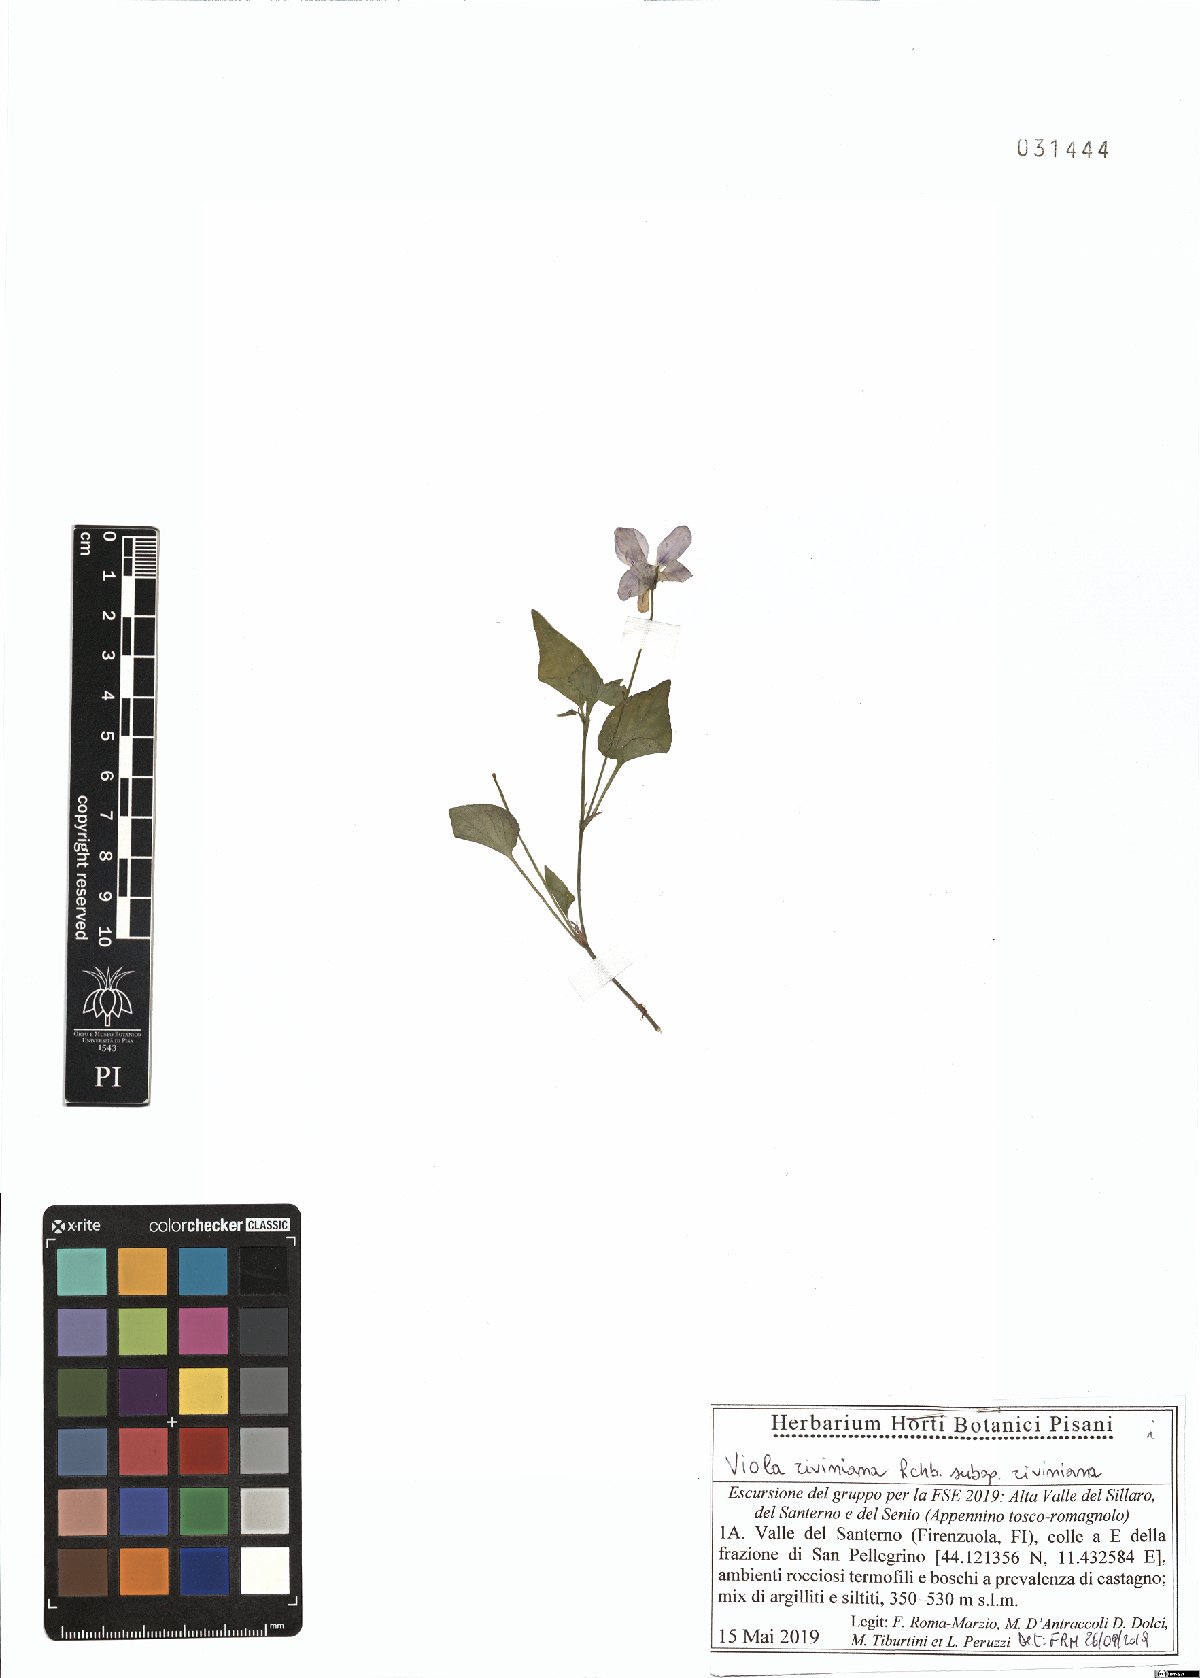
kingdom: Plantae
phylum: Tracheophyta
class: Magnoliopsida
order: Malpighiales
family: Violaceae
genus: Viola
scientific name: Viola riviniana
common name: Common dog-violet
